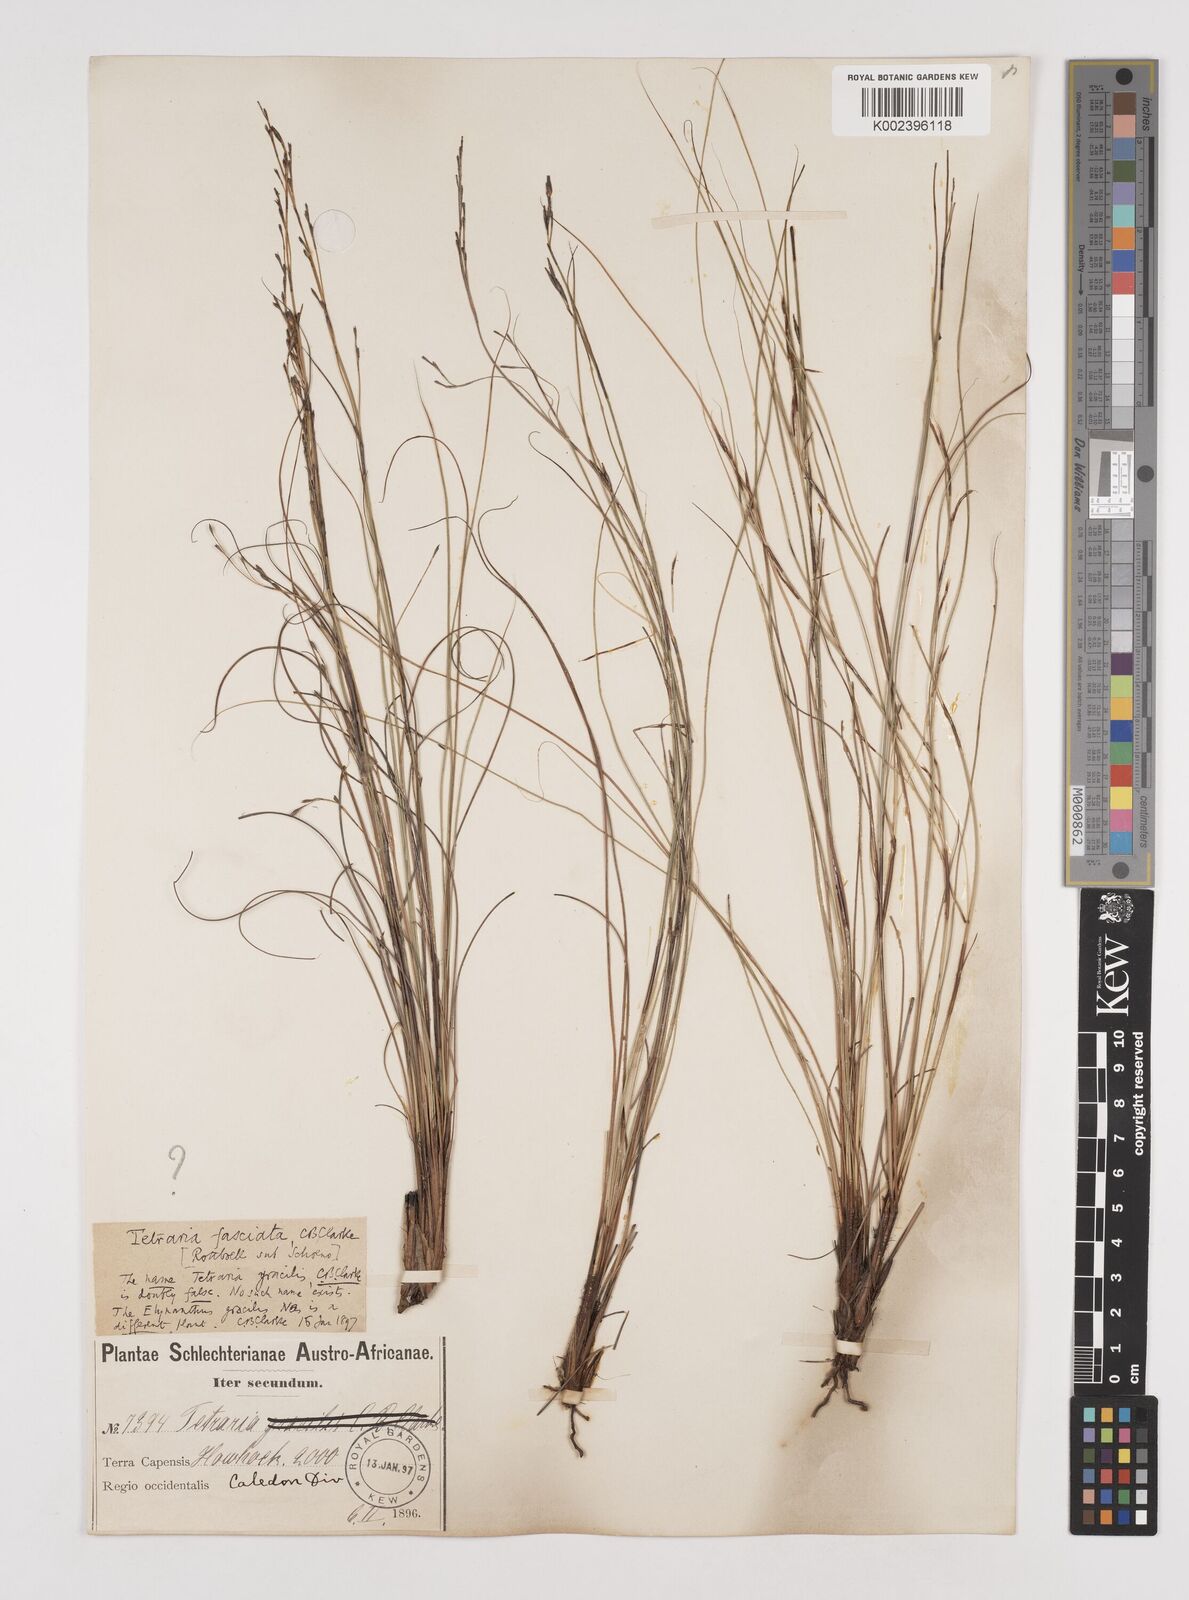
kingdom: Plantae
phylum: Tracheophyta
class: Liliopsida
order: Poales
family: Cyperaceae
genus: Tetraria
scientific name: Tetraria fasciata
